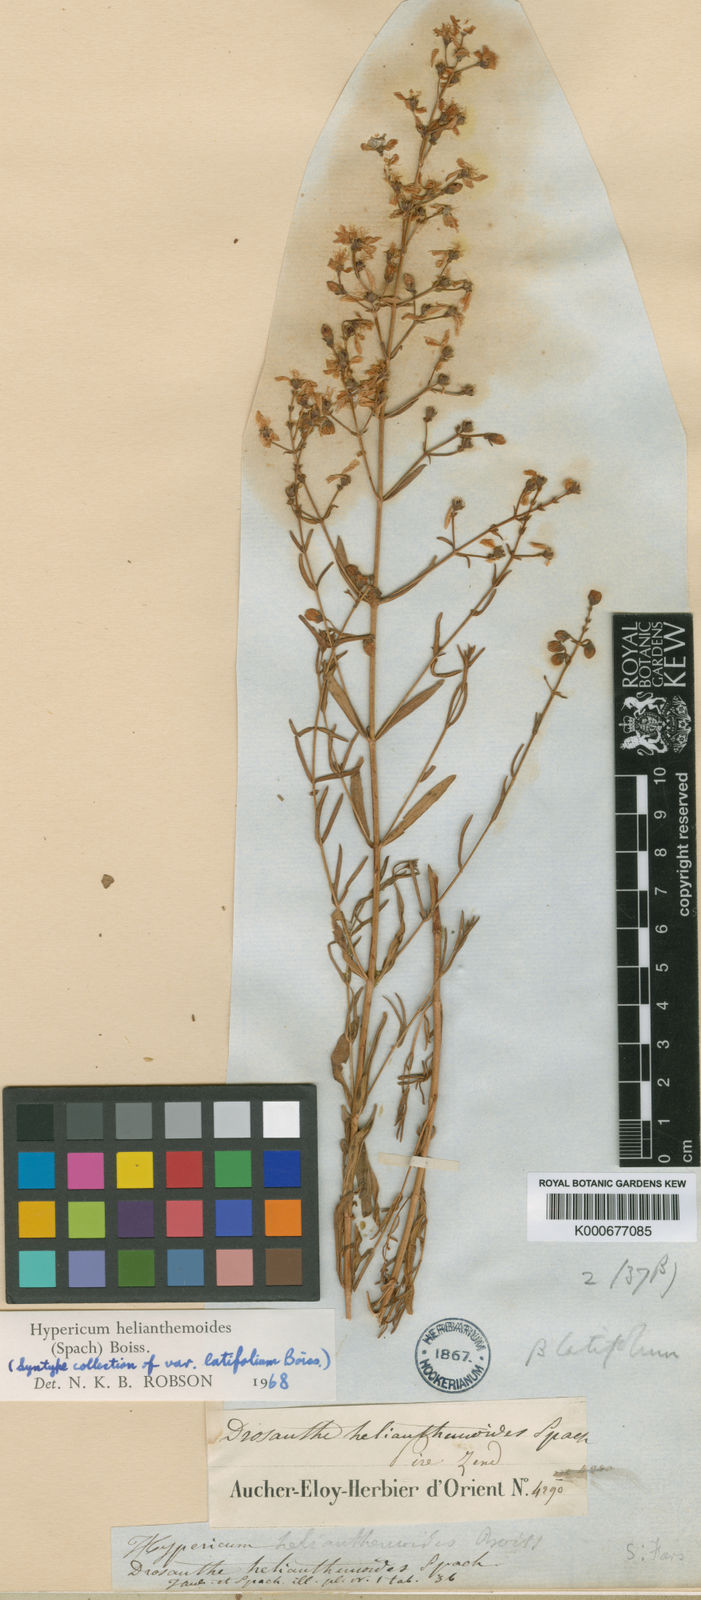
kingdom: Plantae
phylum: Tracheophyta
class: Magnoliopsida
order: Malpighiales
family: Hypericaceae
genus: Hypericum
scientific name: Hypericum helianthemoides
